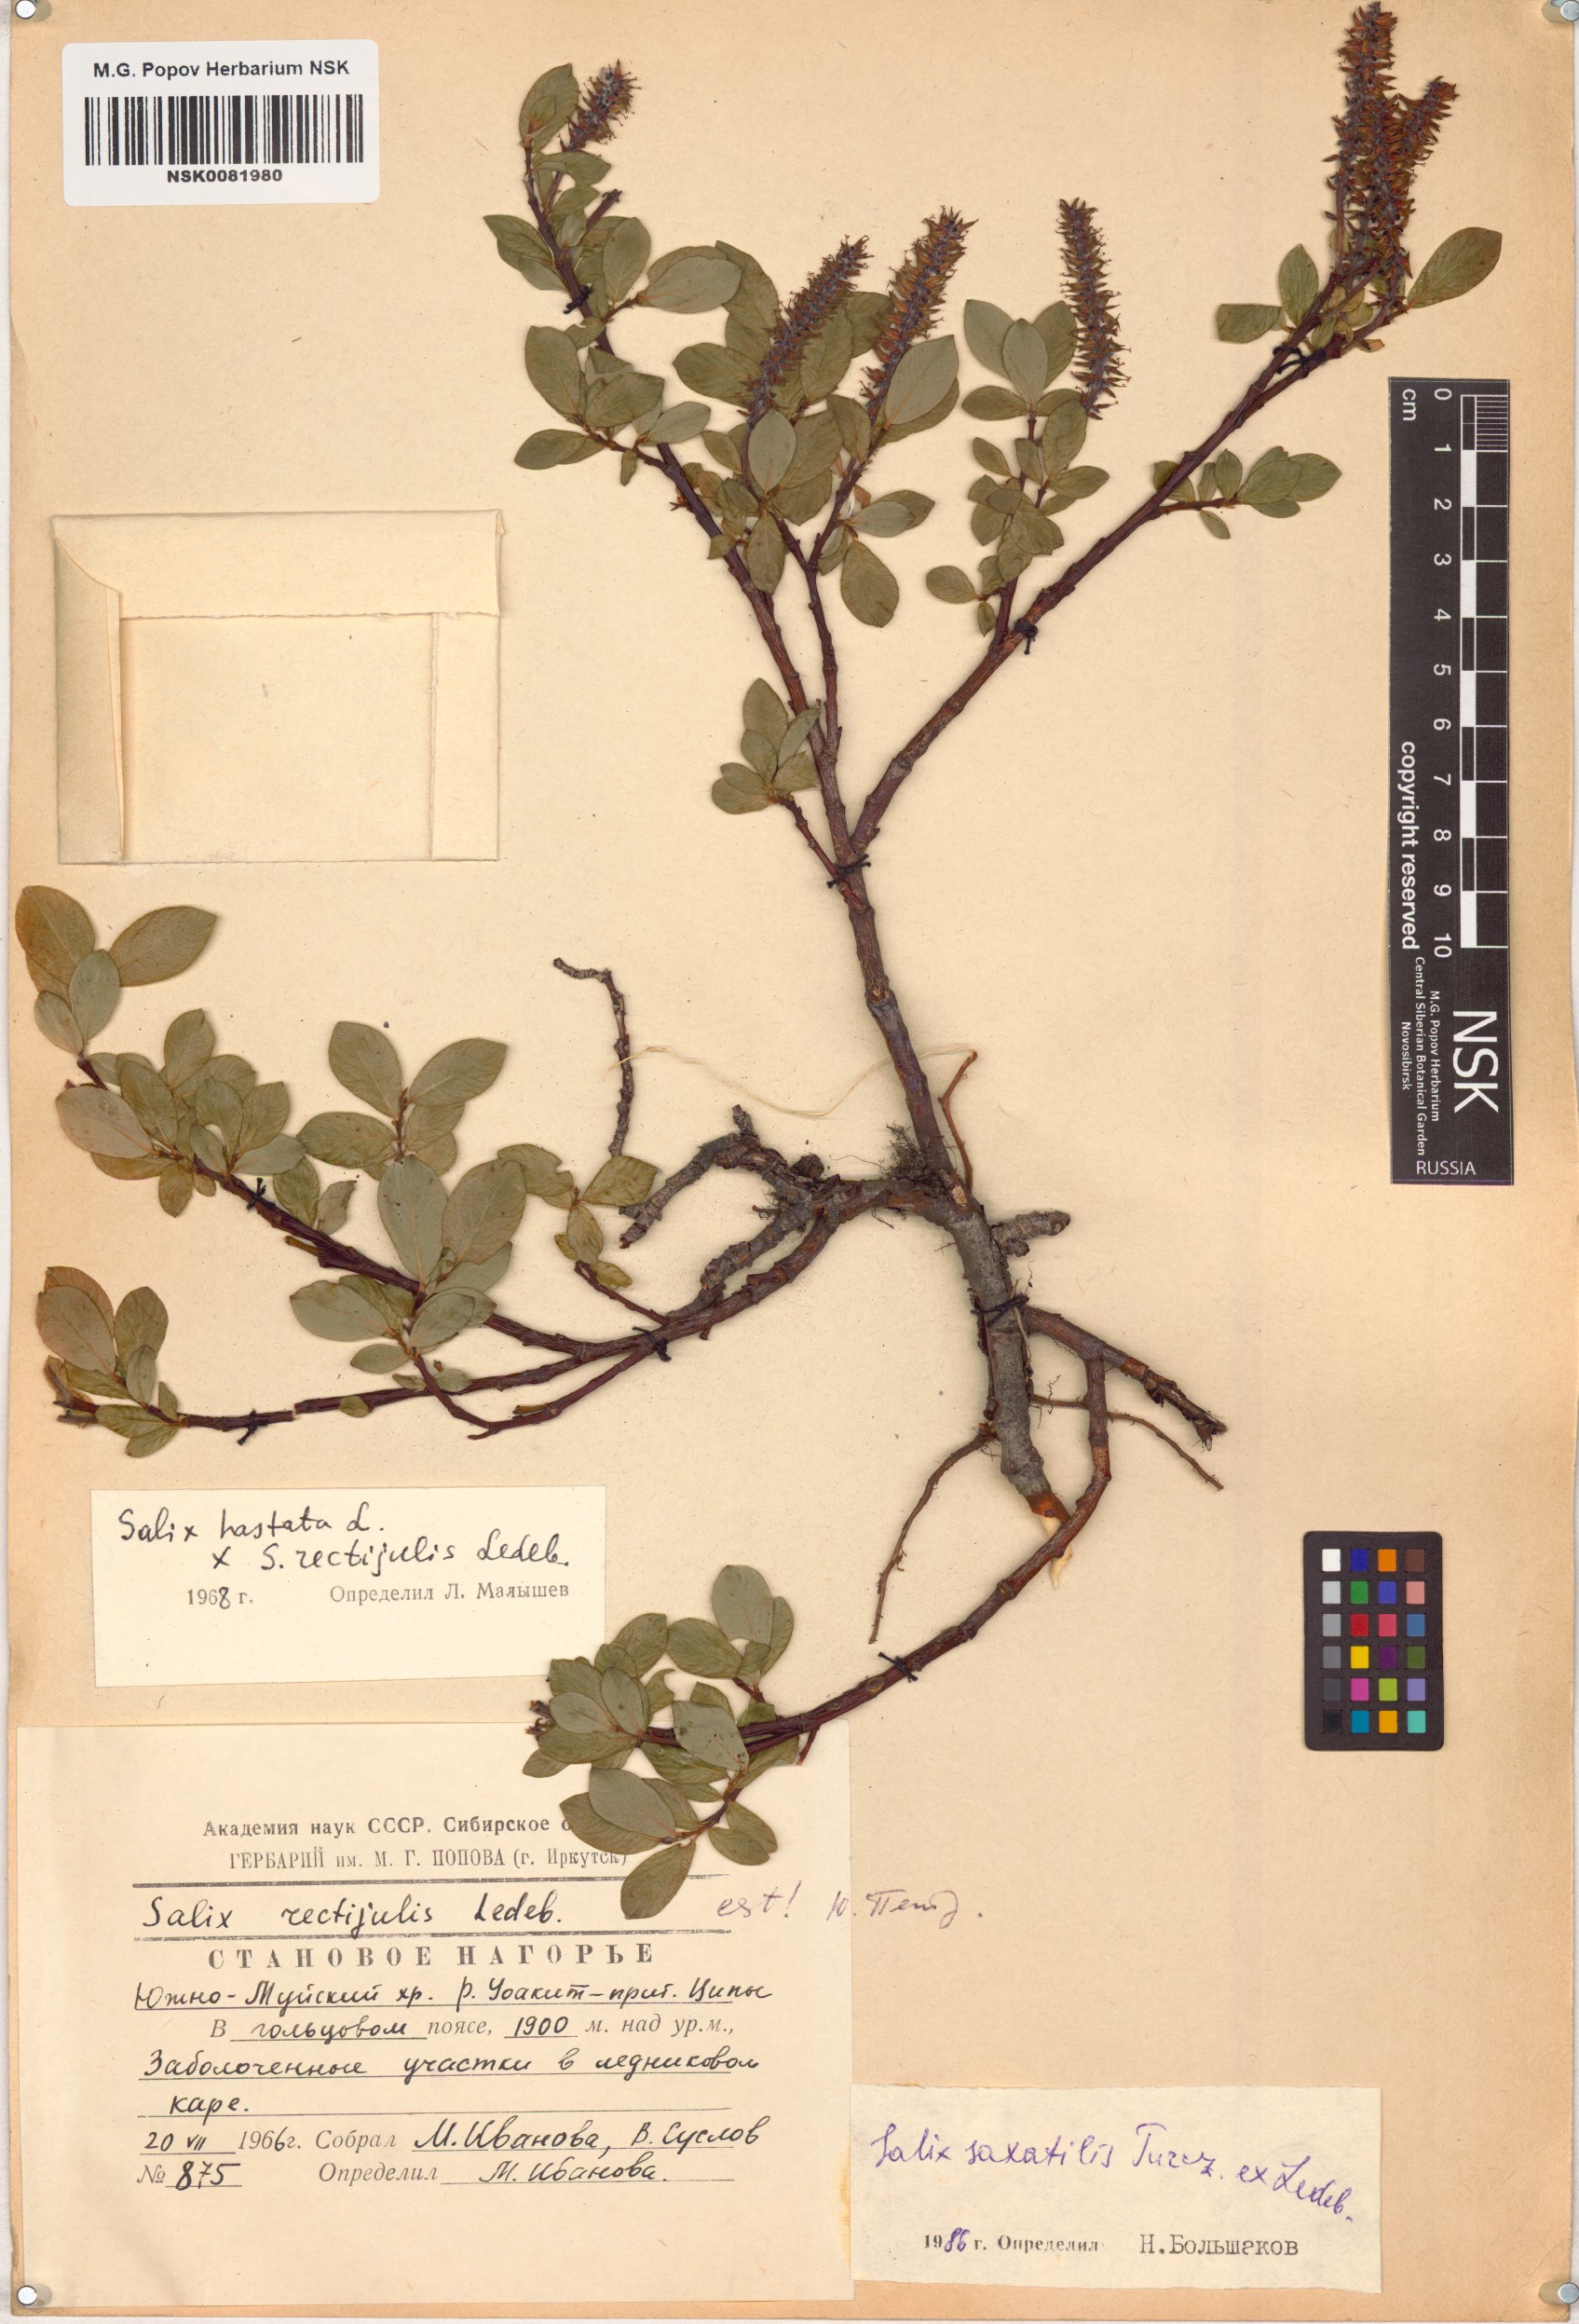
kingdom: Plantae
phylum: Tracheophyta
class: Magnoliopsida
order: Malpighiales
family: Salicaceae
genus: Salix
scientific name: Salix saxatilis
